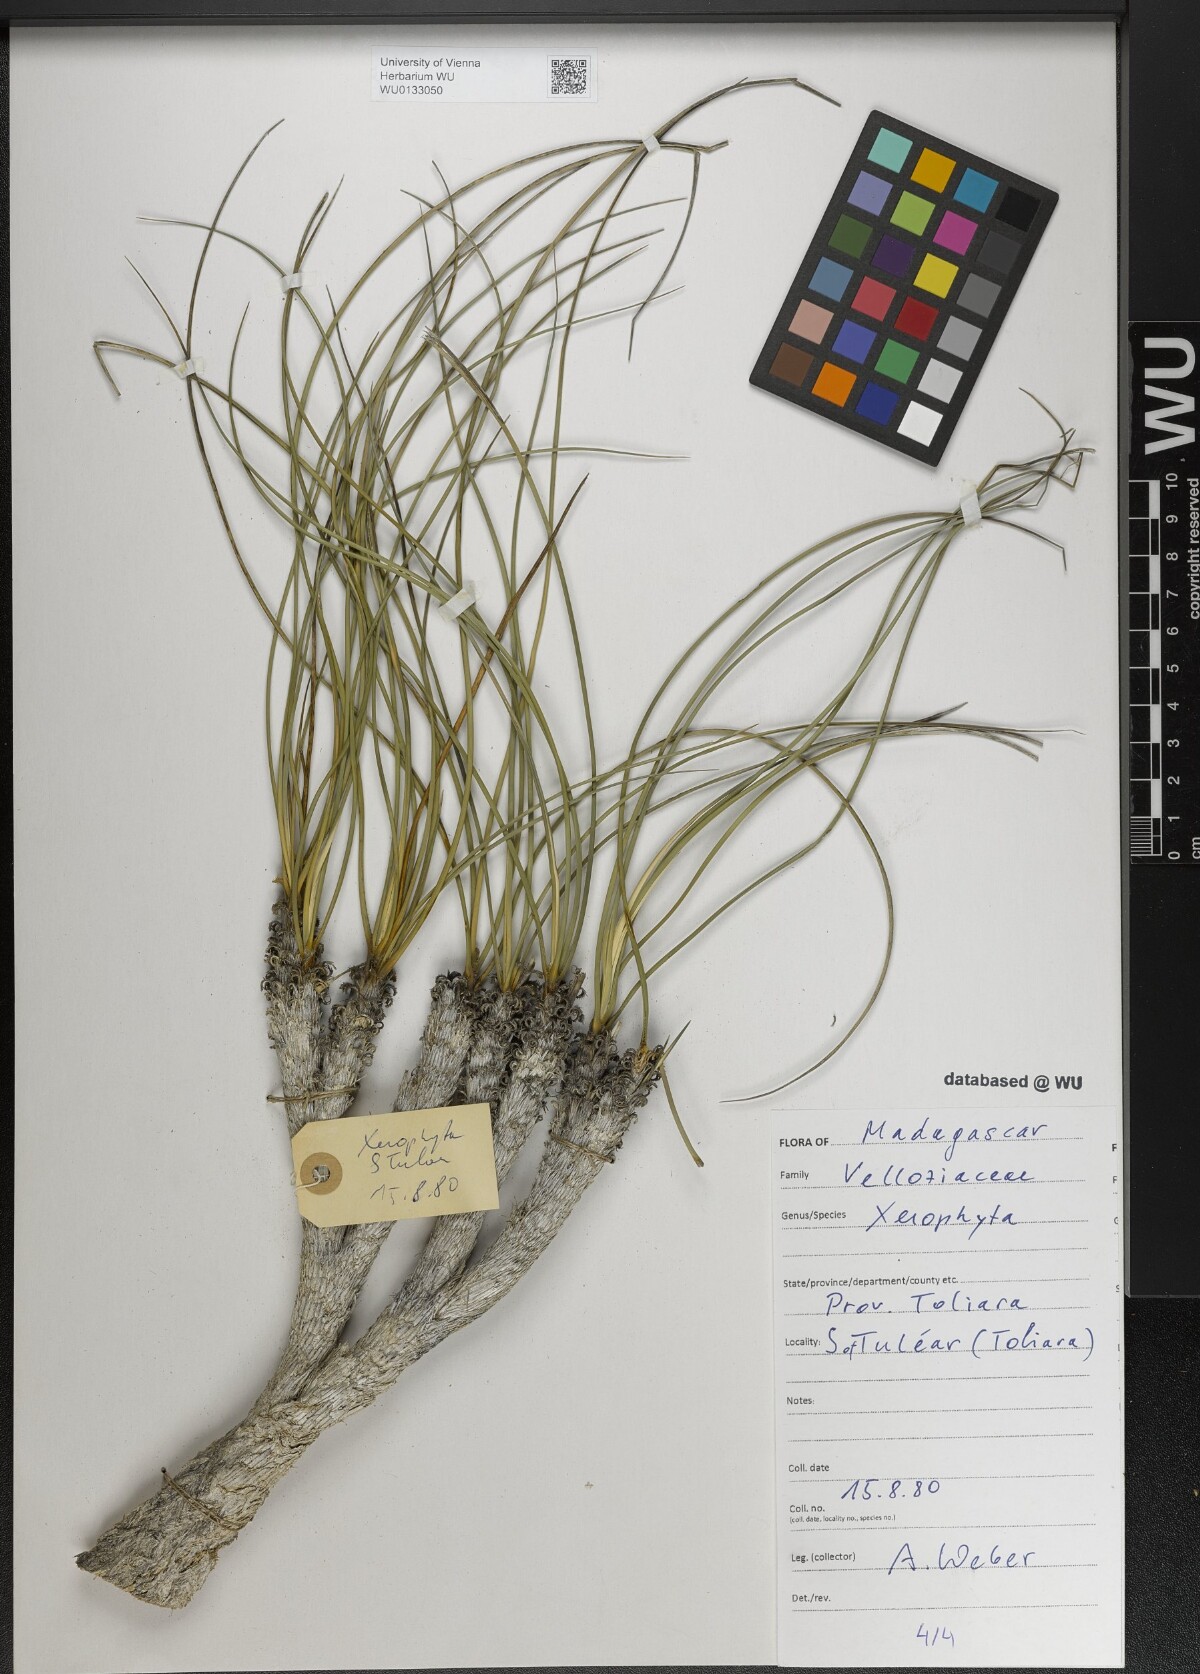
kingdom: Plantae
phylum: Tracheophyta
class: Liliopsida
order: Pandanales
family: Velloziaceae
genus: Xerophyta
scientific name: Xerophyta
